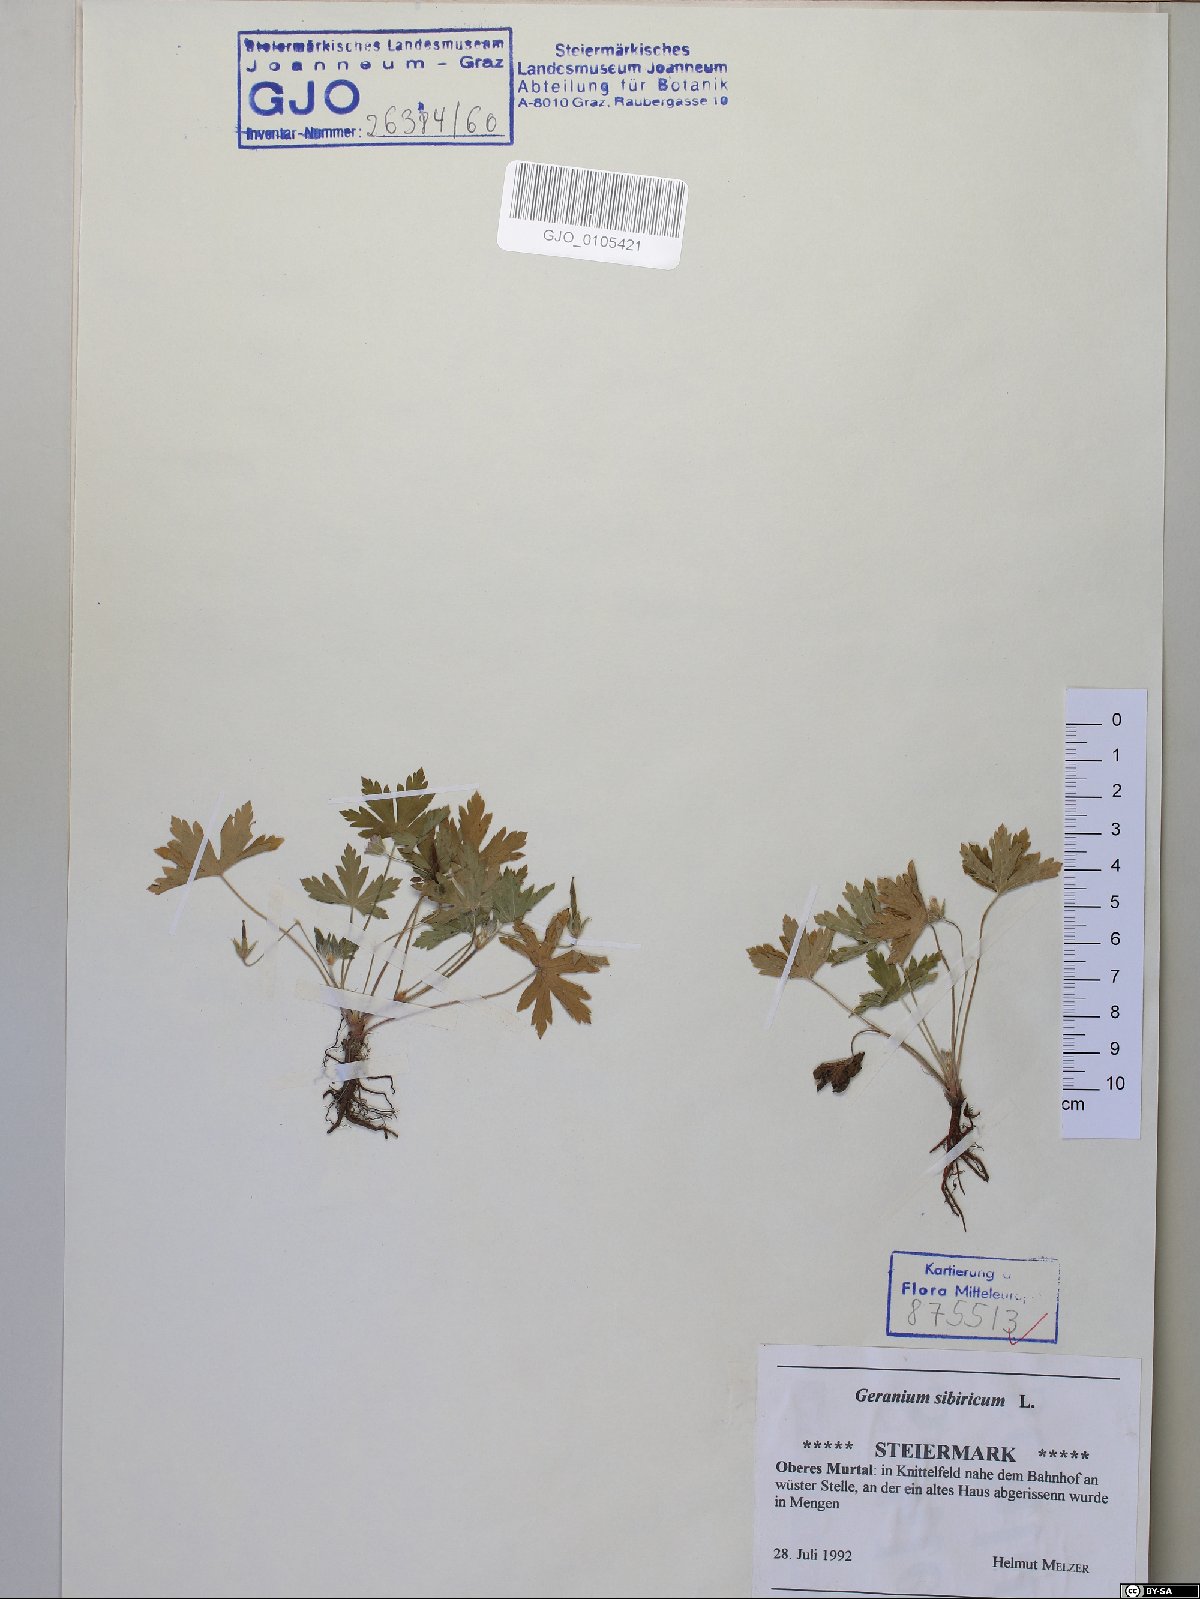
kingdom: Plantae
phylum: Tracheophyta
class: Magnoliopsida
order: Geraniales
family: Geraniaceae
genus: Geranium
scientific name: Geranium sibiricum
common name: Siberian crane's-bill
